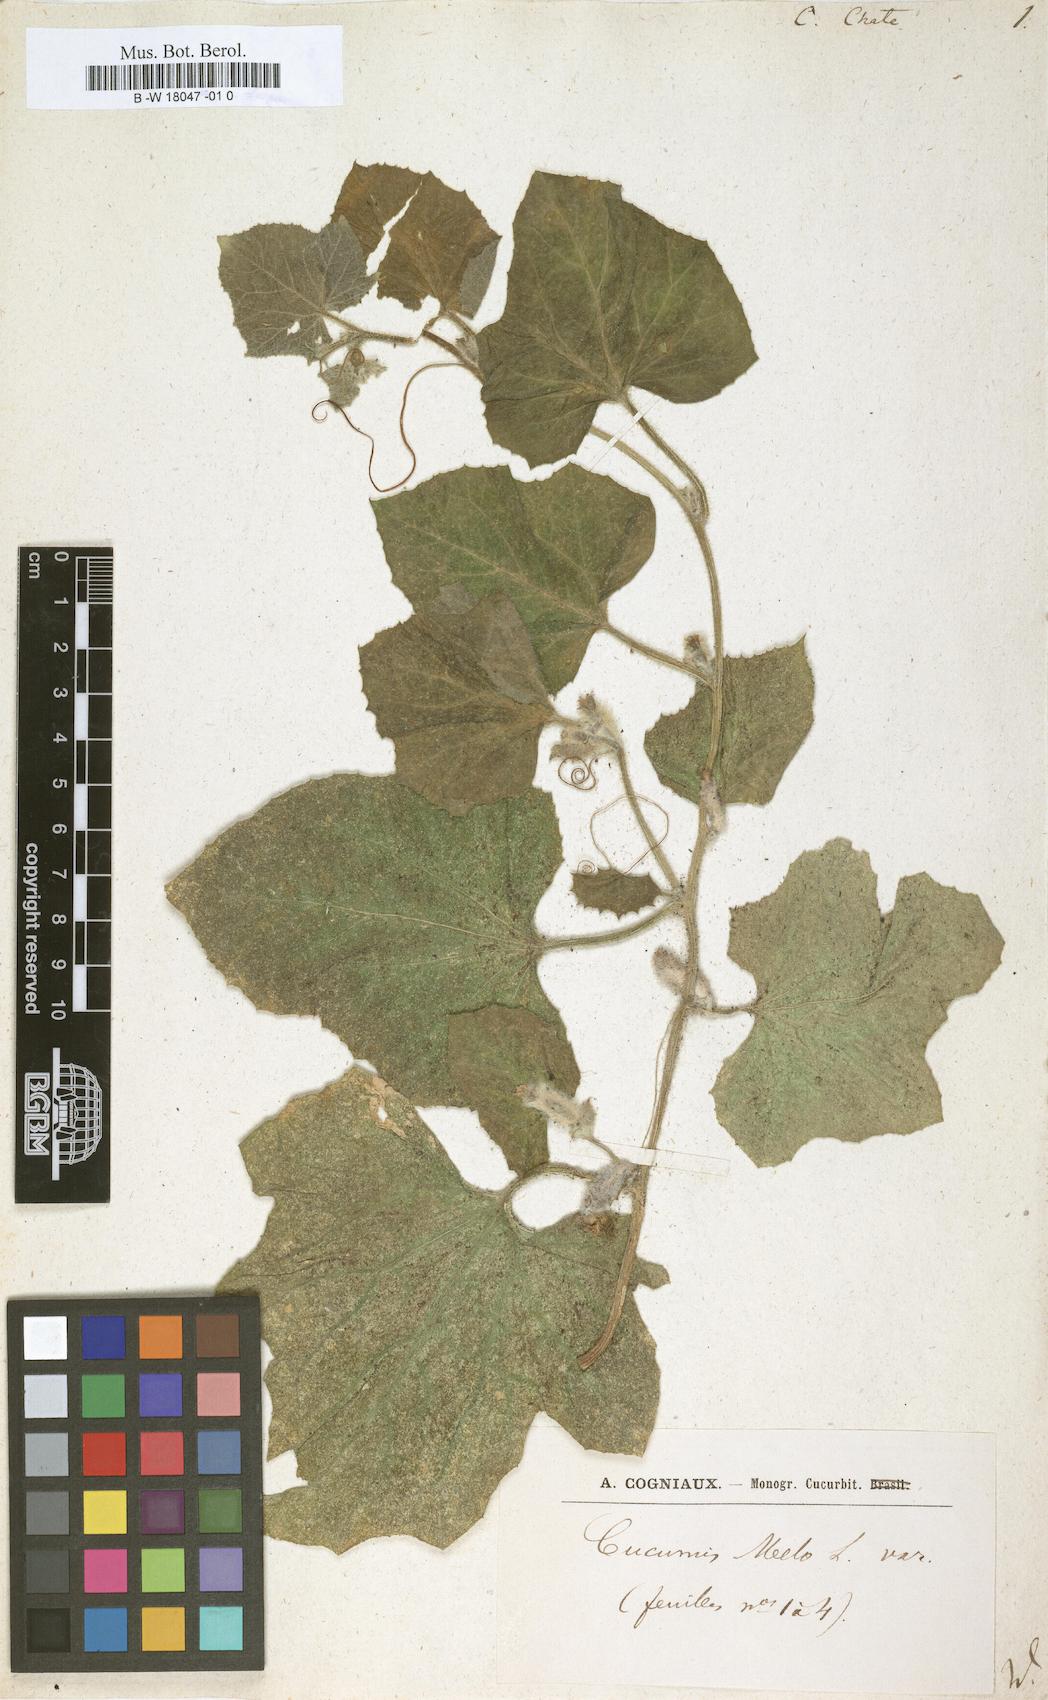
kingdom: Plantae
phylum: Tracheophyta
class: Magnoliopsida
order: Cucurbitales
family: Cucurbitaceae
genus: Cucumis
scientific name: Cucumis melo
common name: Melon
